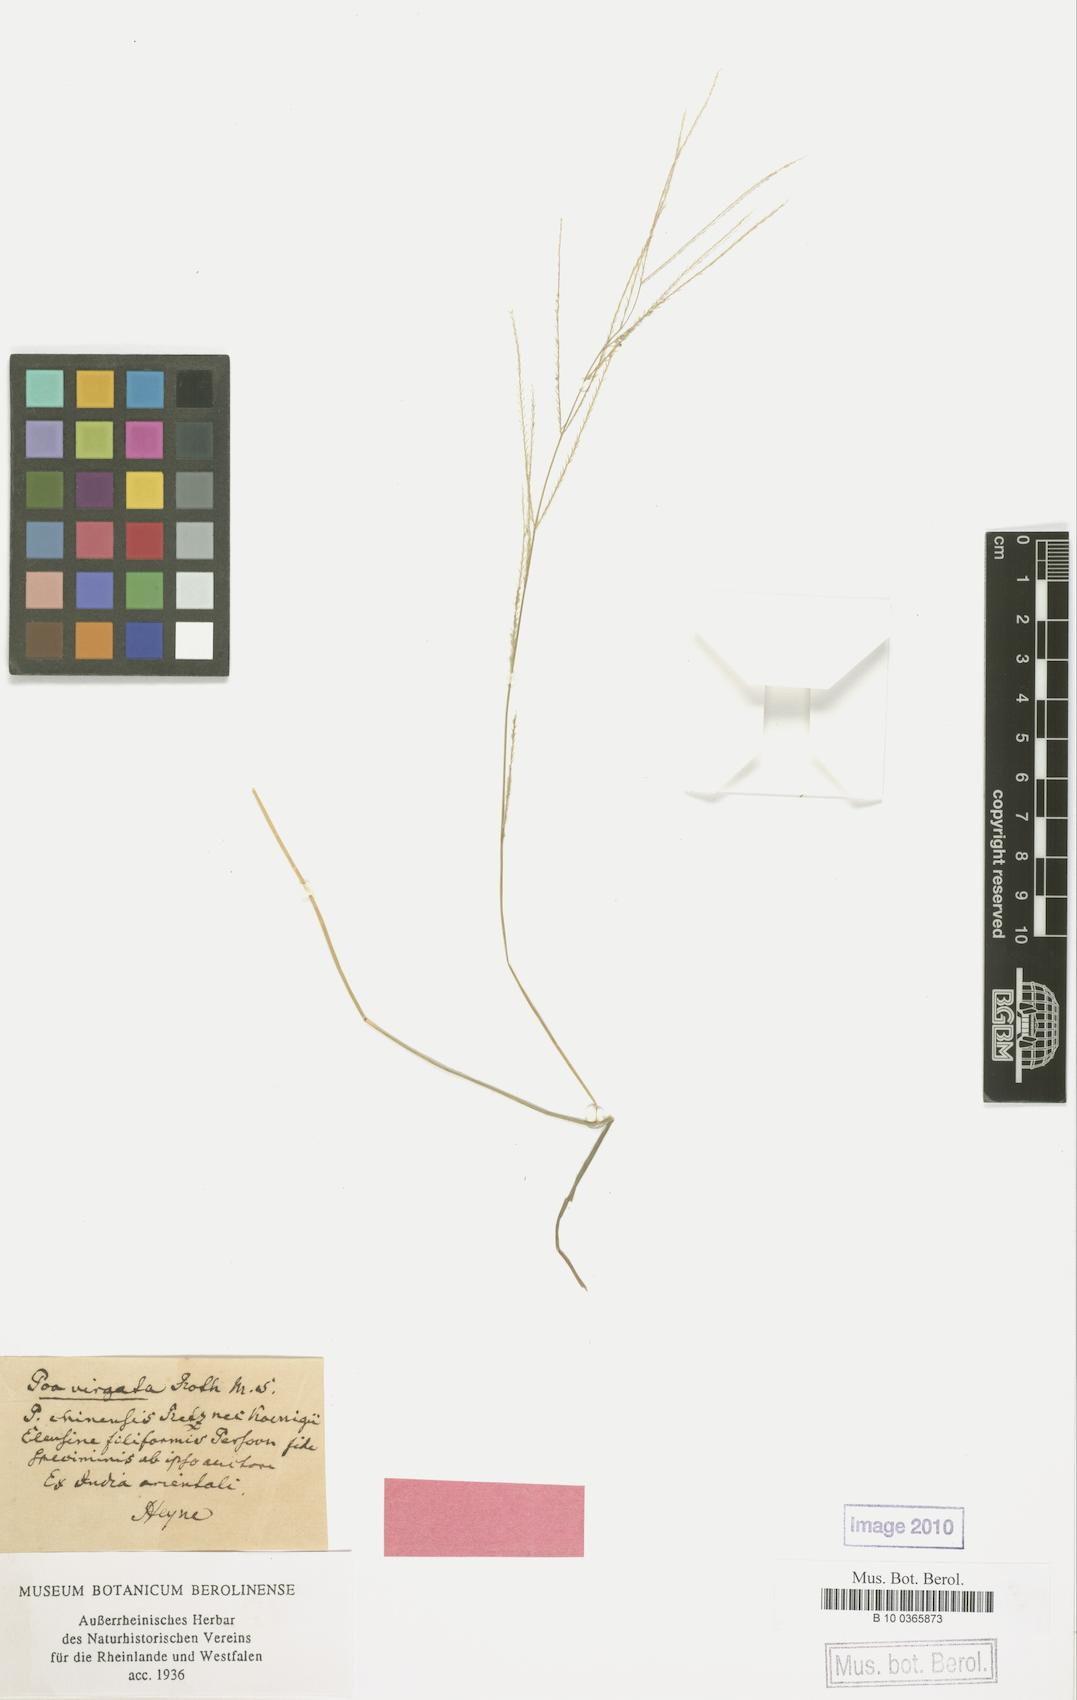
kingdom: Plantae
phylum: Tracheophyta
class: Liliopsida
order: Poales
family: Poaceae
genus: Leptochloa
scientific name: Leptochloa mucronata
